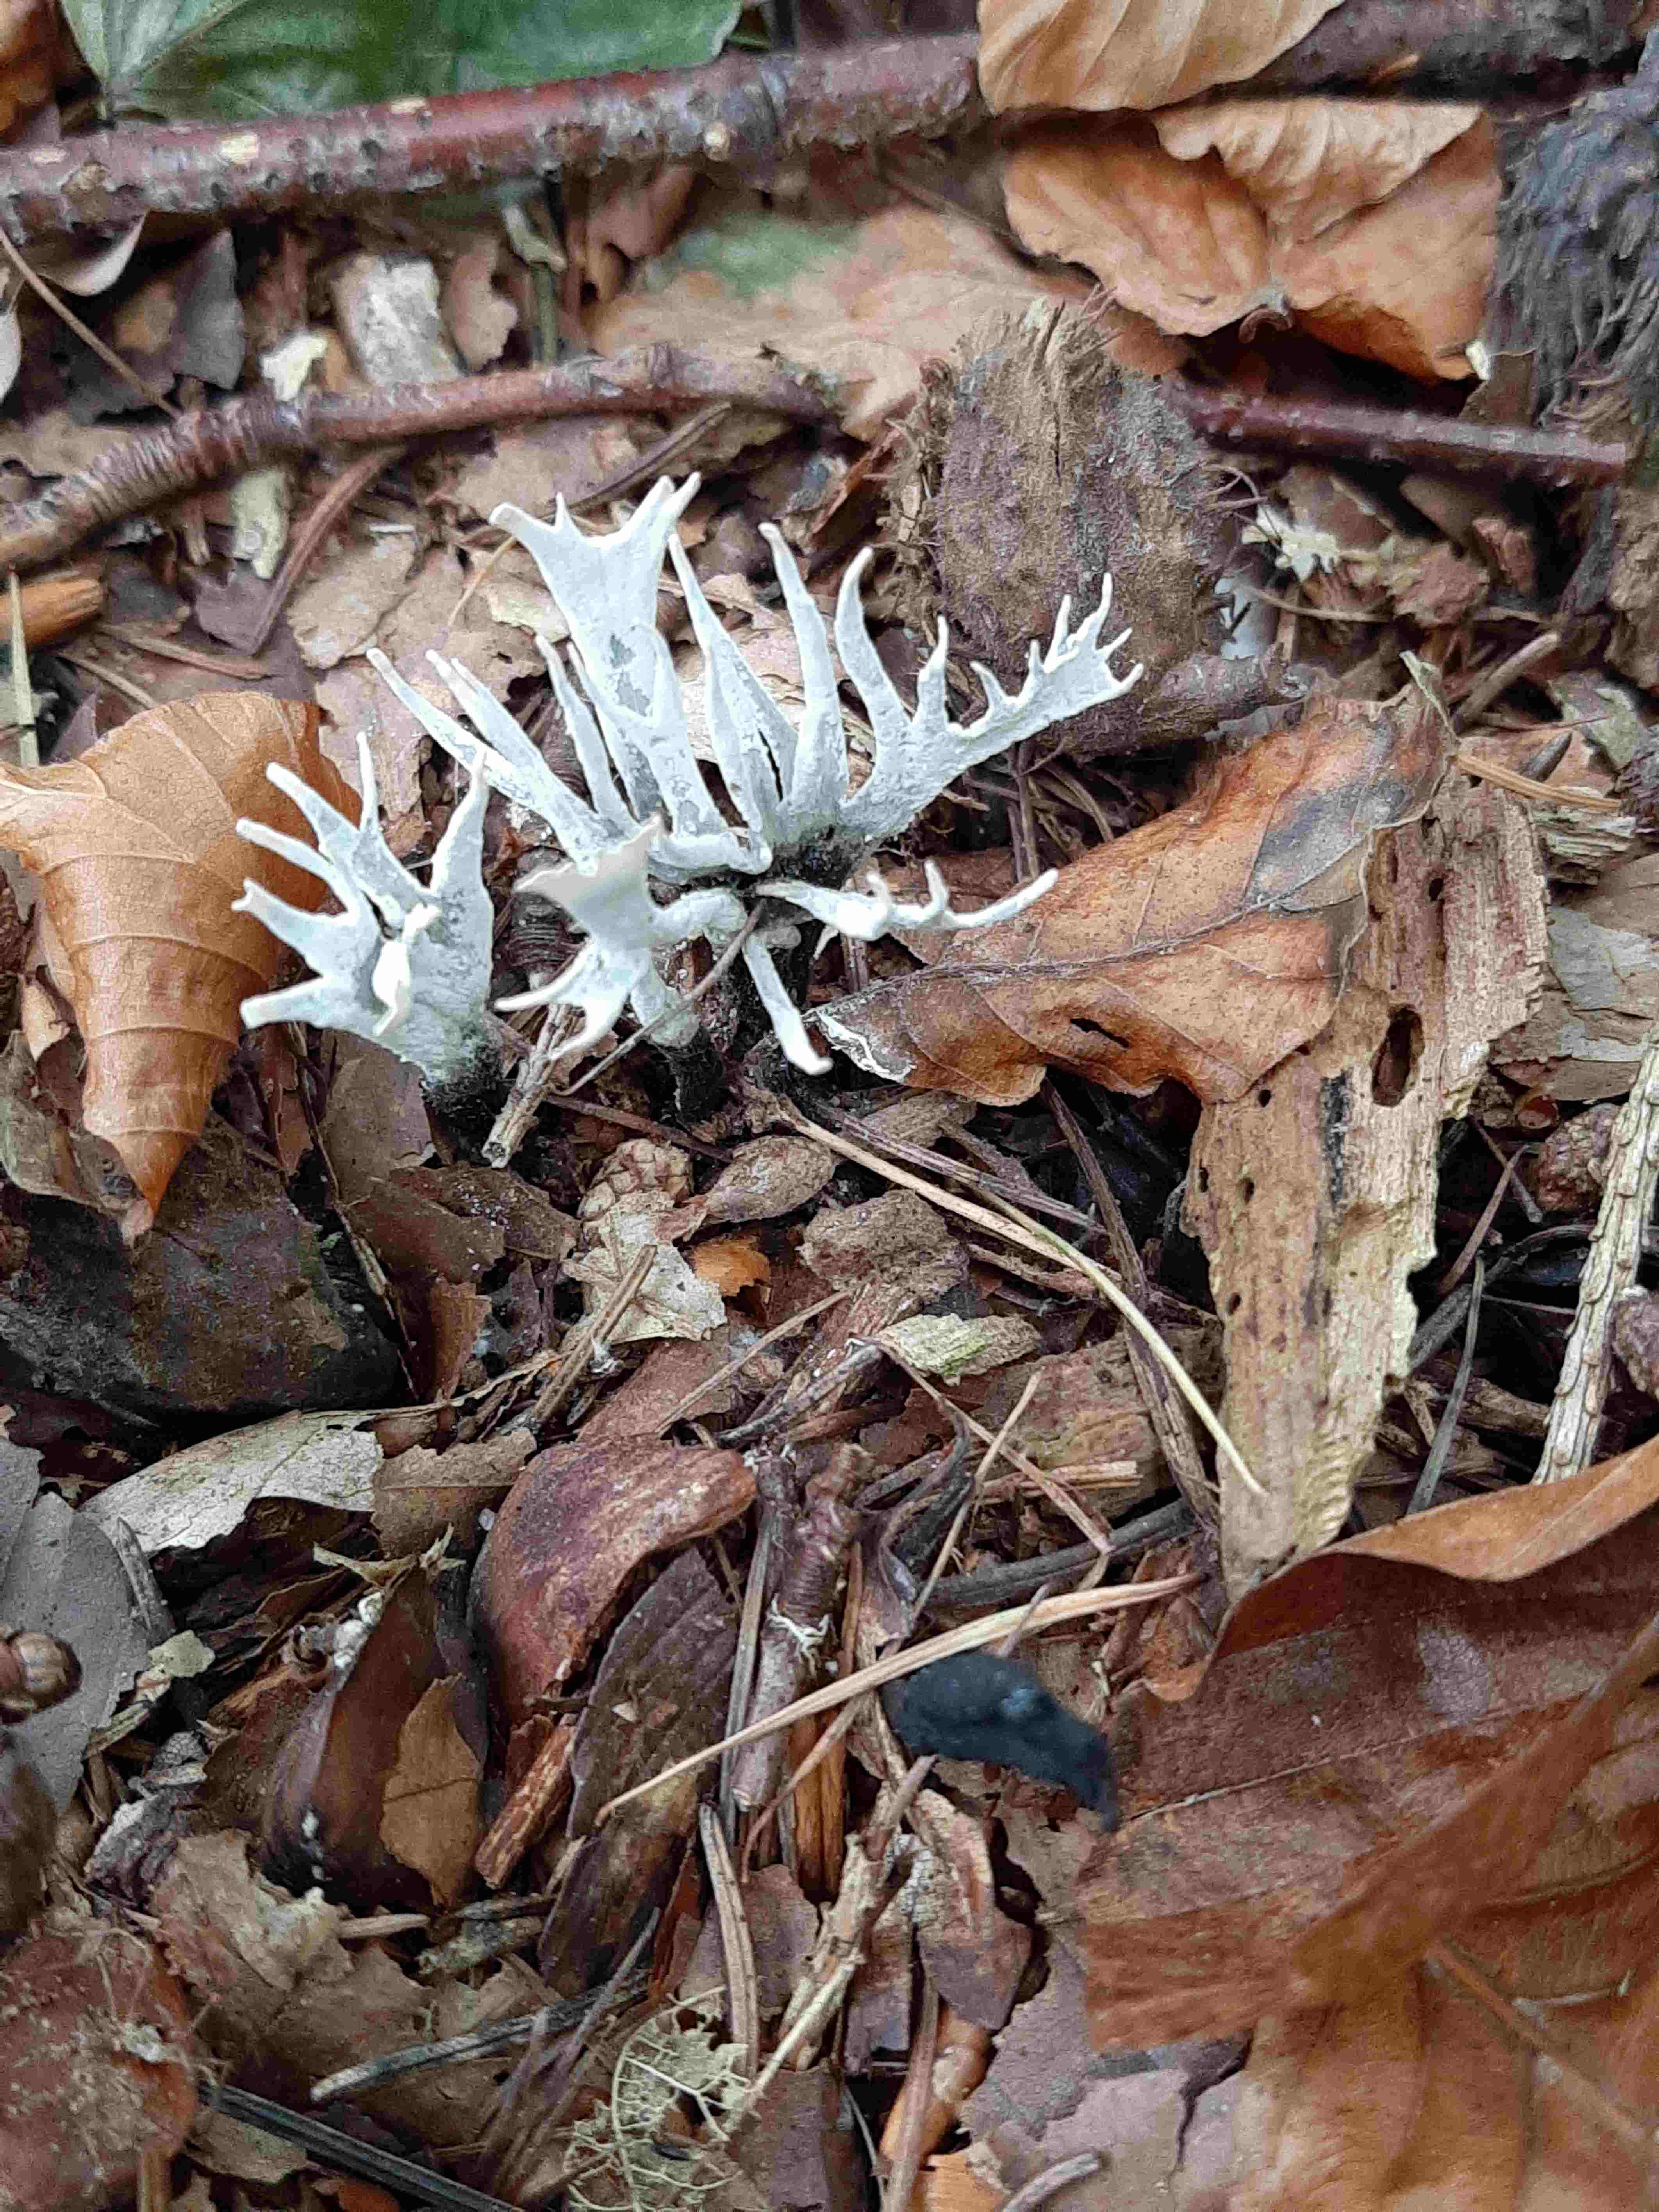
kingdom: Fungi
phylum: Ascomycota
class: Sordariomycetes
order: Xylariales
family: Xylariaceae
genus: Xylaria
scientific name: Xylaria hypoxylon
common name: grenet stødsvamp
